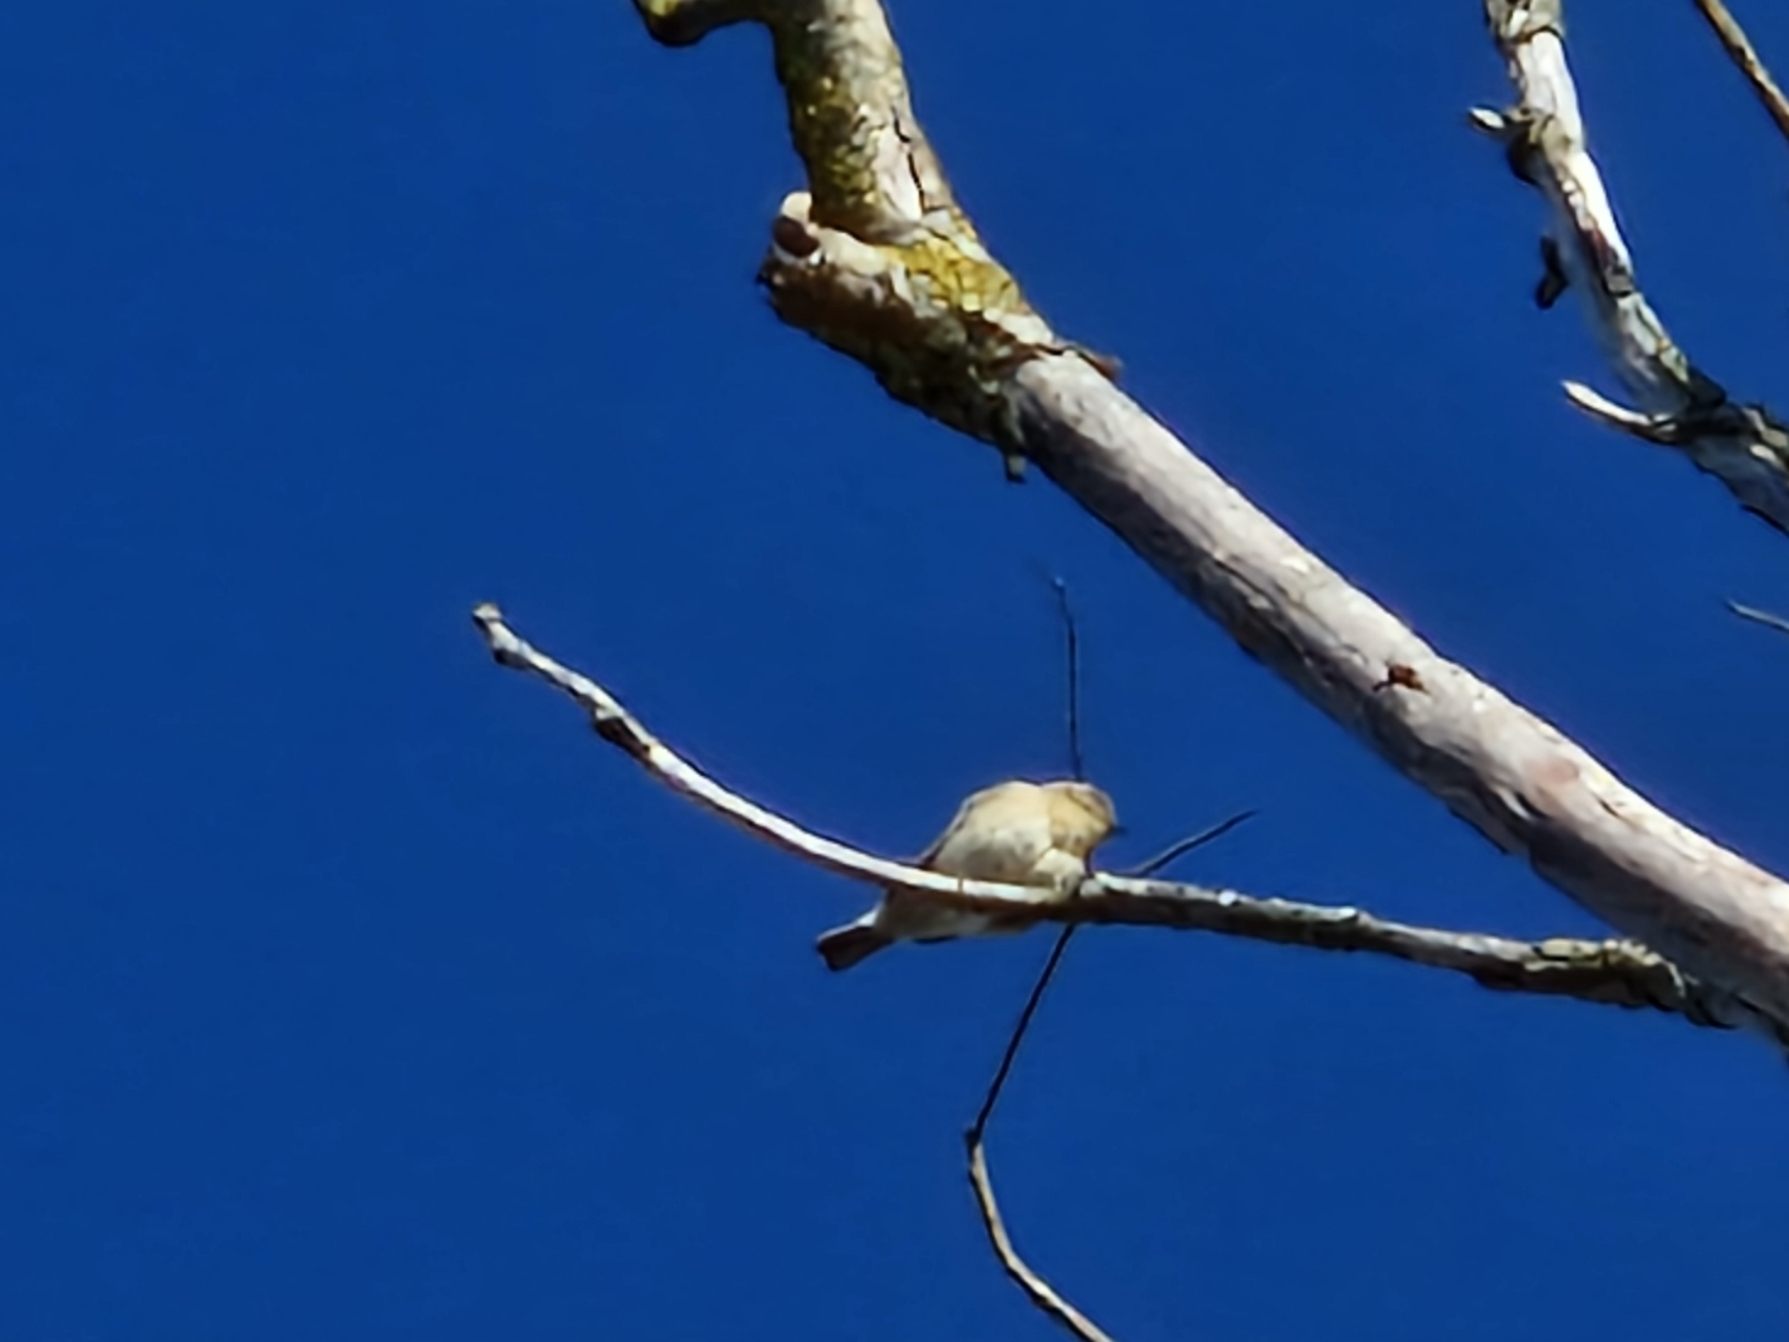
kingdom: Animalia
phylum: Chordata
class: Aves
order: Passeriformes
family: Phylloscopidae
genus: Phylloscopus
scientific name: Phylloscopus collybita
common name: Gransanger
